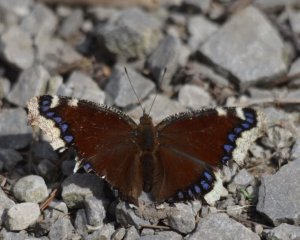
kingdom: Animalia
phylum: Arthropoda
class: Insecta
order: Lepidoptera
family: Nymphalidae
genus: Nymphalis
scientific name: Nymphalis antiopa
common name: Mourning Cloak
